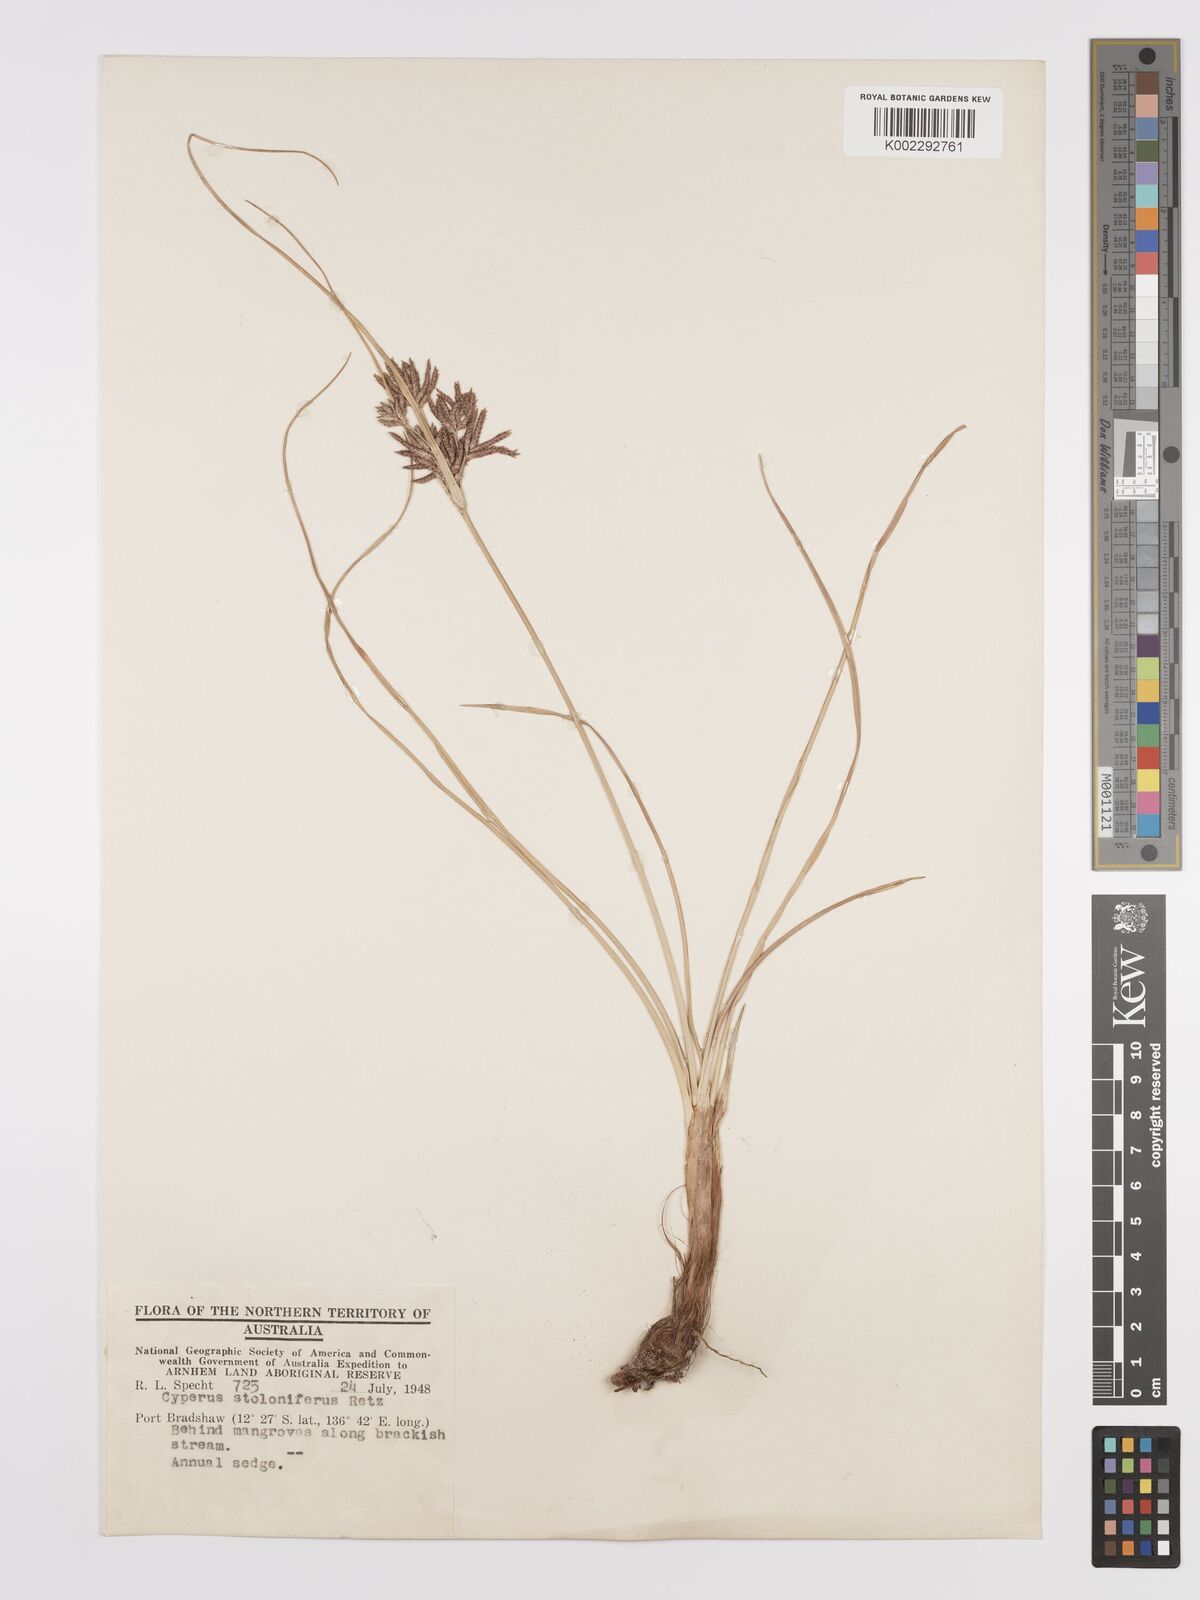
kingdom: Plantae
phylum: Tracheophyta
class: Liliopsida
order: Poales
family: Cyperaceae
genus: Cyperus
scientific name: Cyperus bulbosus
